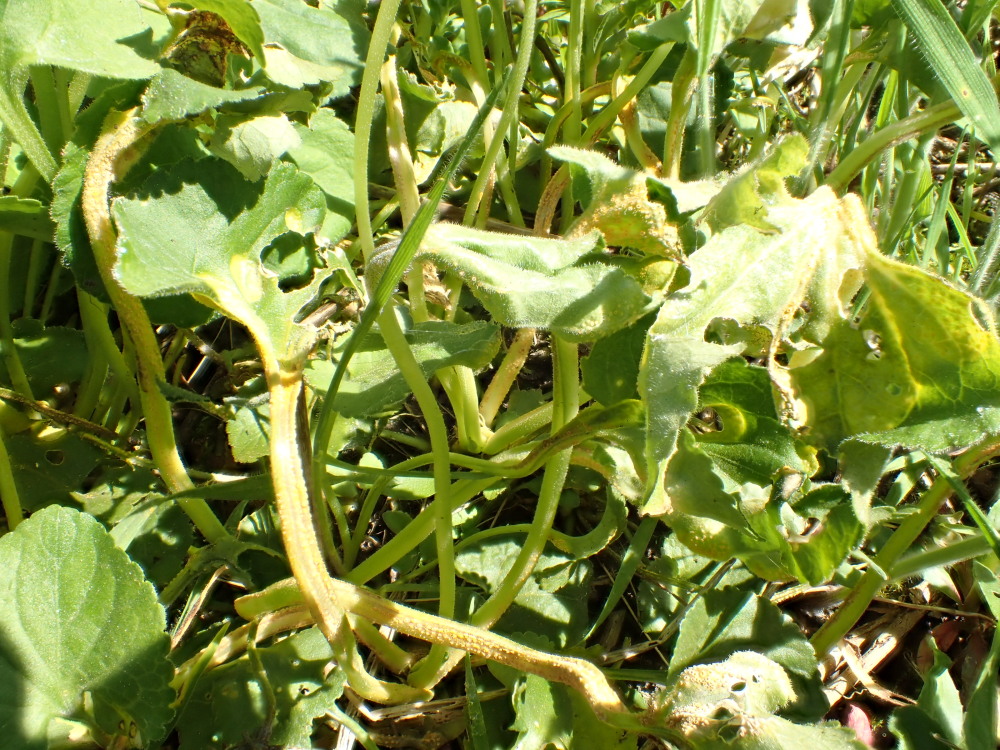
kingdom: Fungi
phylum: Basidiomycota
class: Pucciniomycetes
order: Pucciniales
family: Pucciniaceae
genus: Puccinia
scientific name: Puccinia violae
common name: viol-tvecellerust
